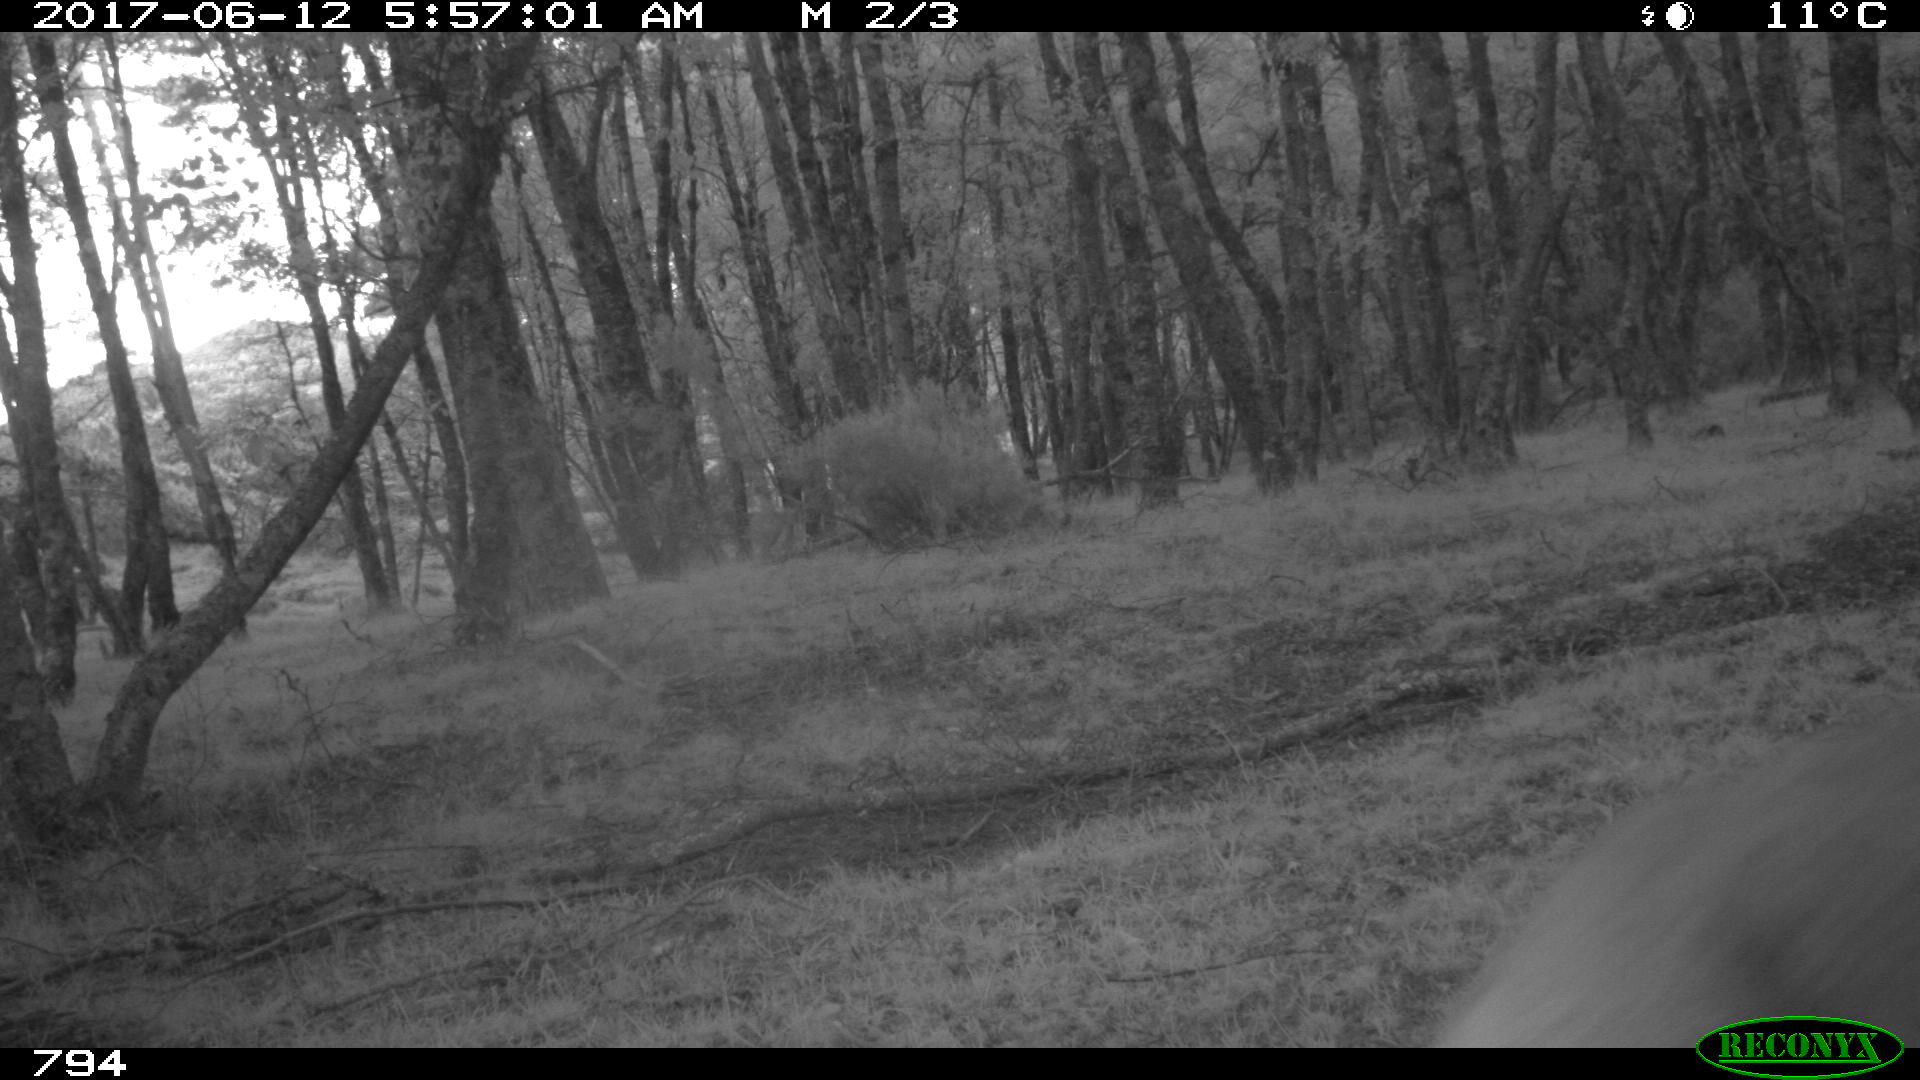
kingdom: Animalia
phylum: Chordata
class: Mammalia
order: Artiodactyla
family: Cervidae
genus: Capreolus
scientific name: Capreolus capreolus
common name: Western roe deer
